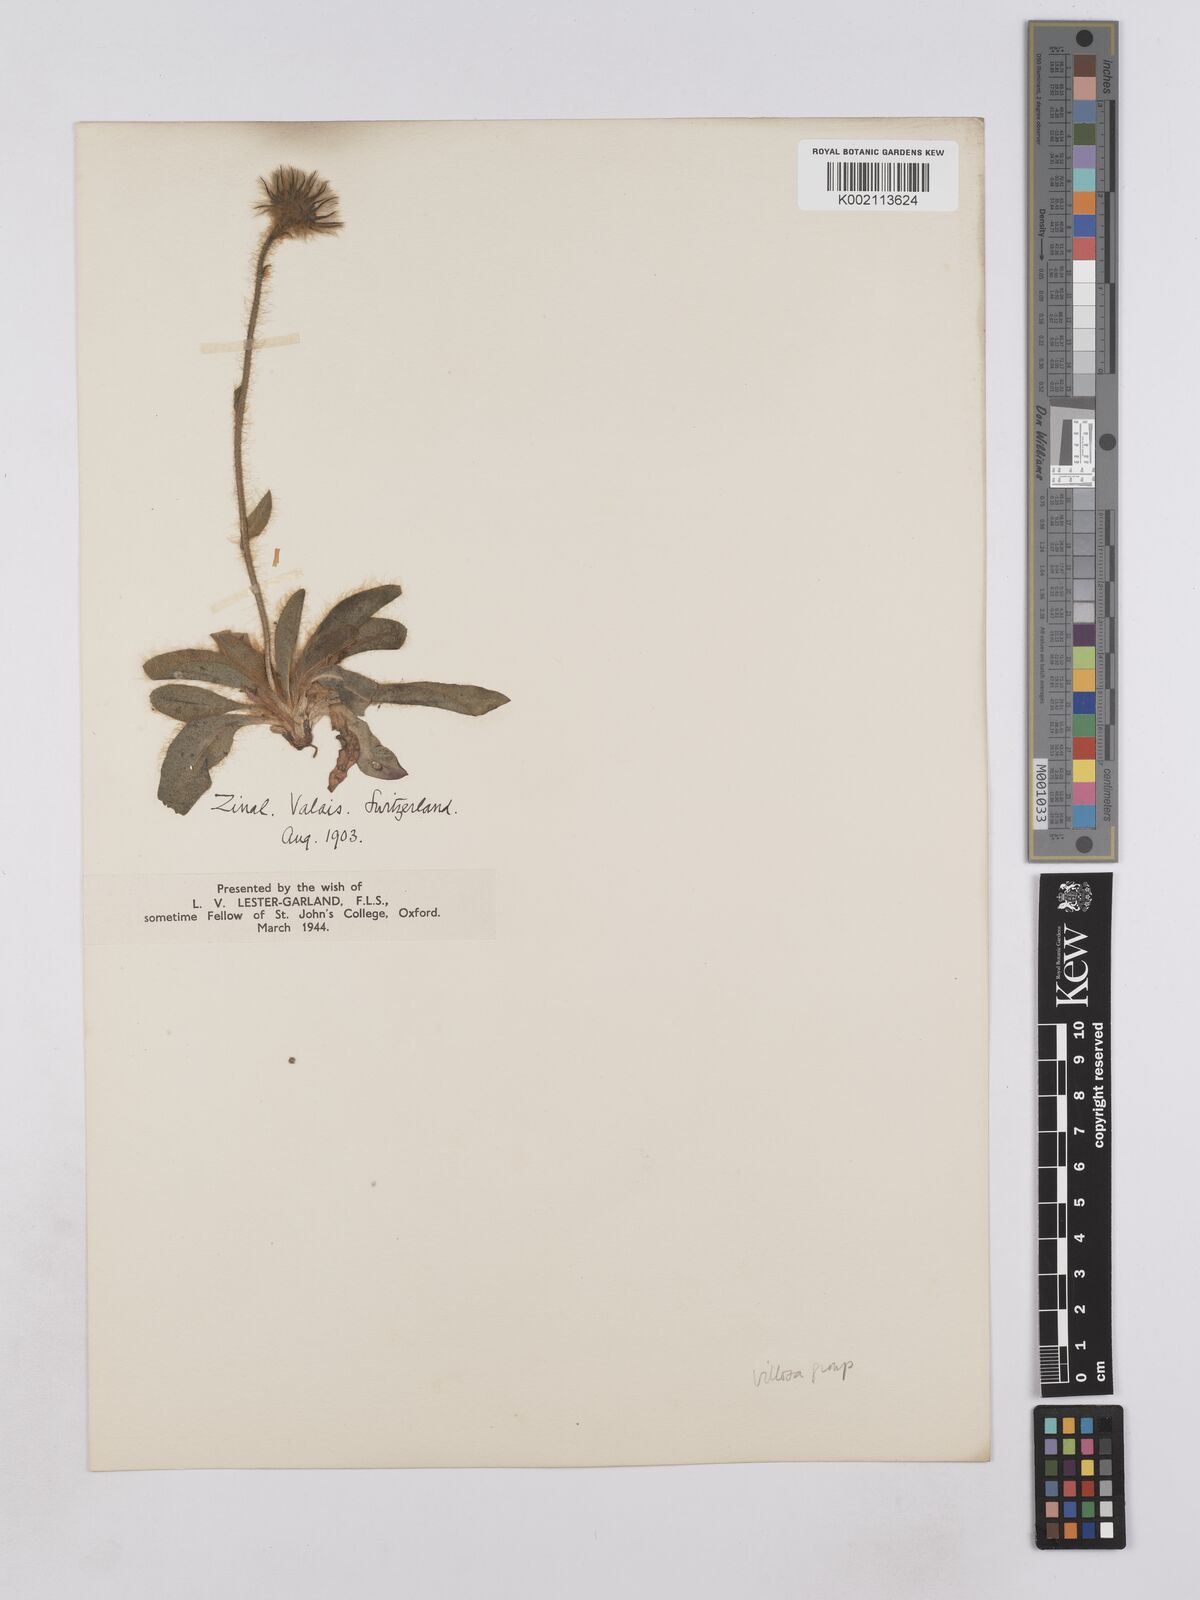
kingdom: Plantae
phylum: Tracheophyta
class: Magnoliopsida
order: Asterales
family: Asteraceae
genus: Hieracium
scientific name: Hieracium villosum
